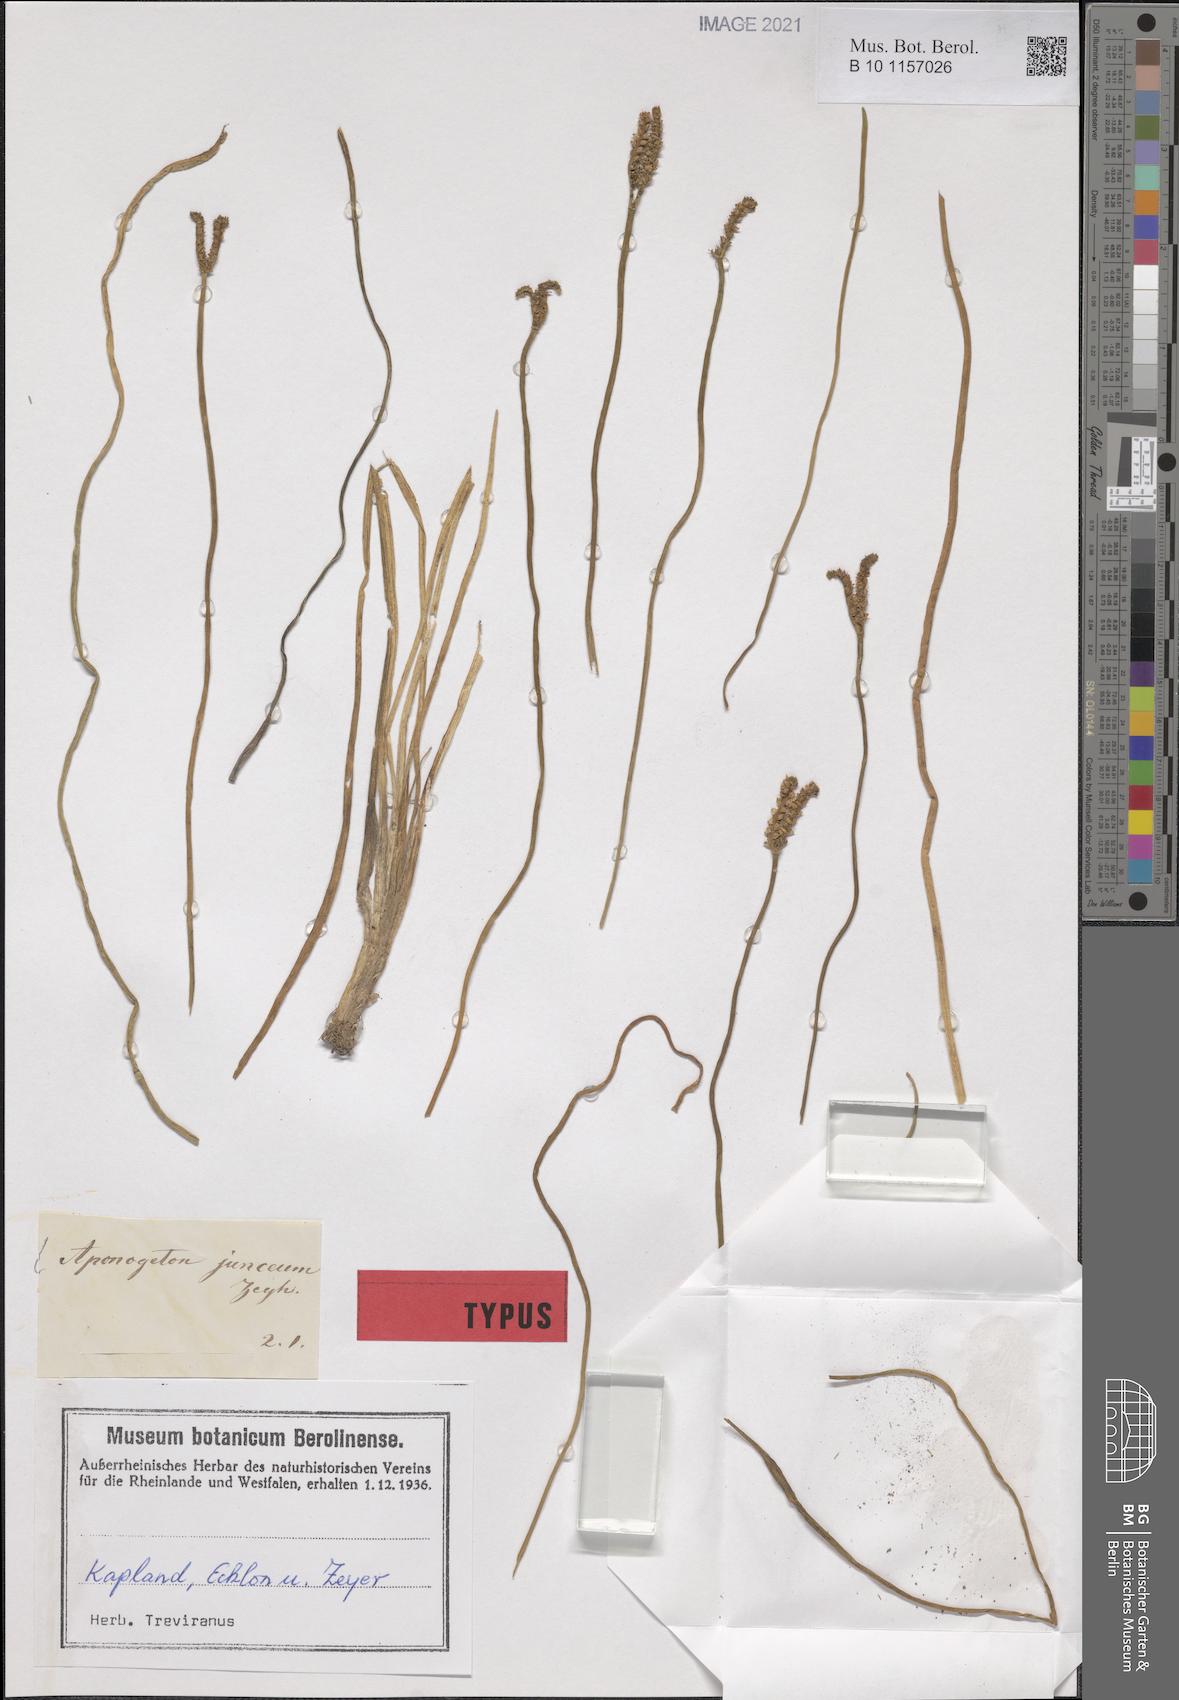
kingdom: Plantae
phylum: Tracheophyta
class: Liliopsida
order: Alismatales
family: Aponogetonaceae
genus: Aponogeton
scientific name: Aponogeton junceus
